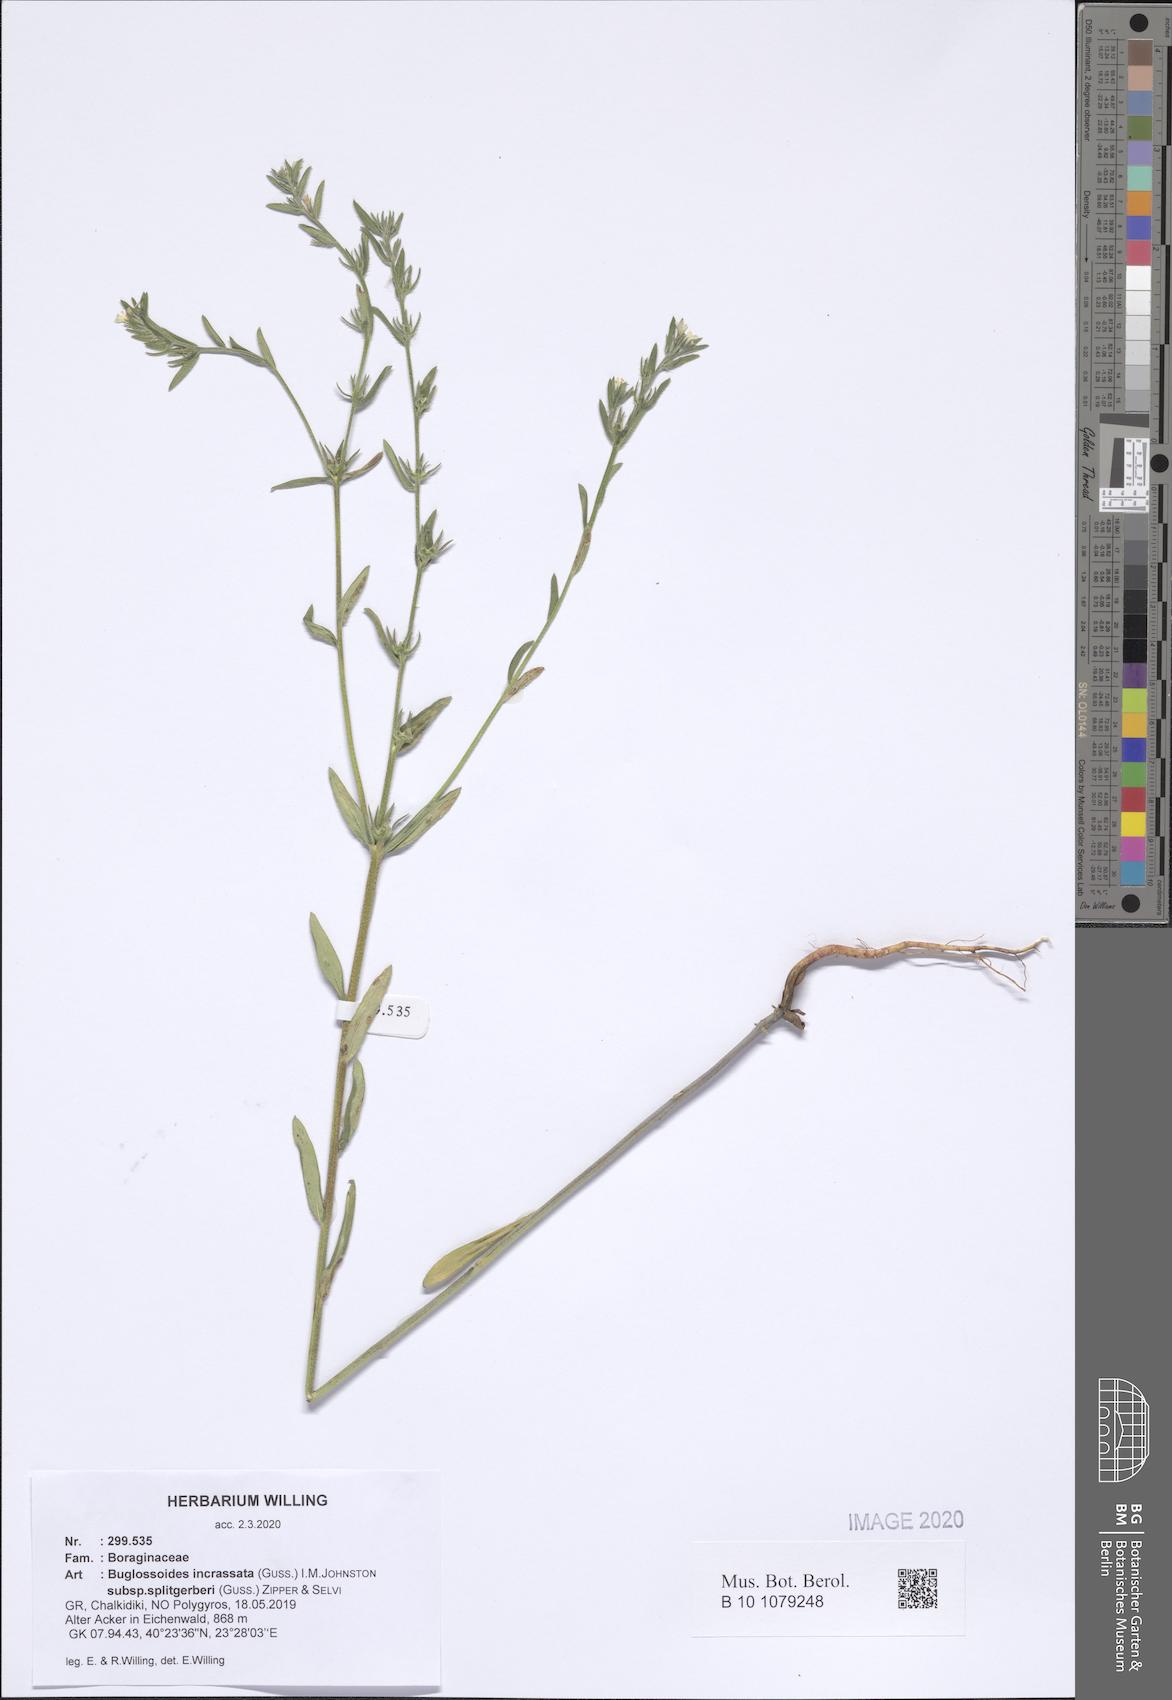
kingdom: Plantae
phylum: Tracheophyta
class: Magnoliopsida
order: Boraginales
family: Boraginaceae
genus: Buglossoides
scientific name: Buglossoides incrassata
